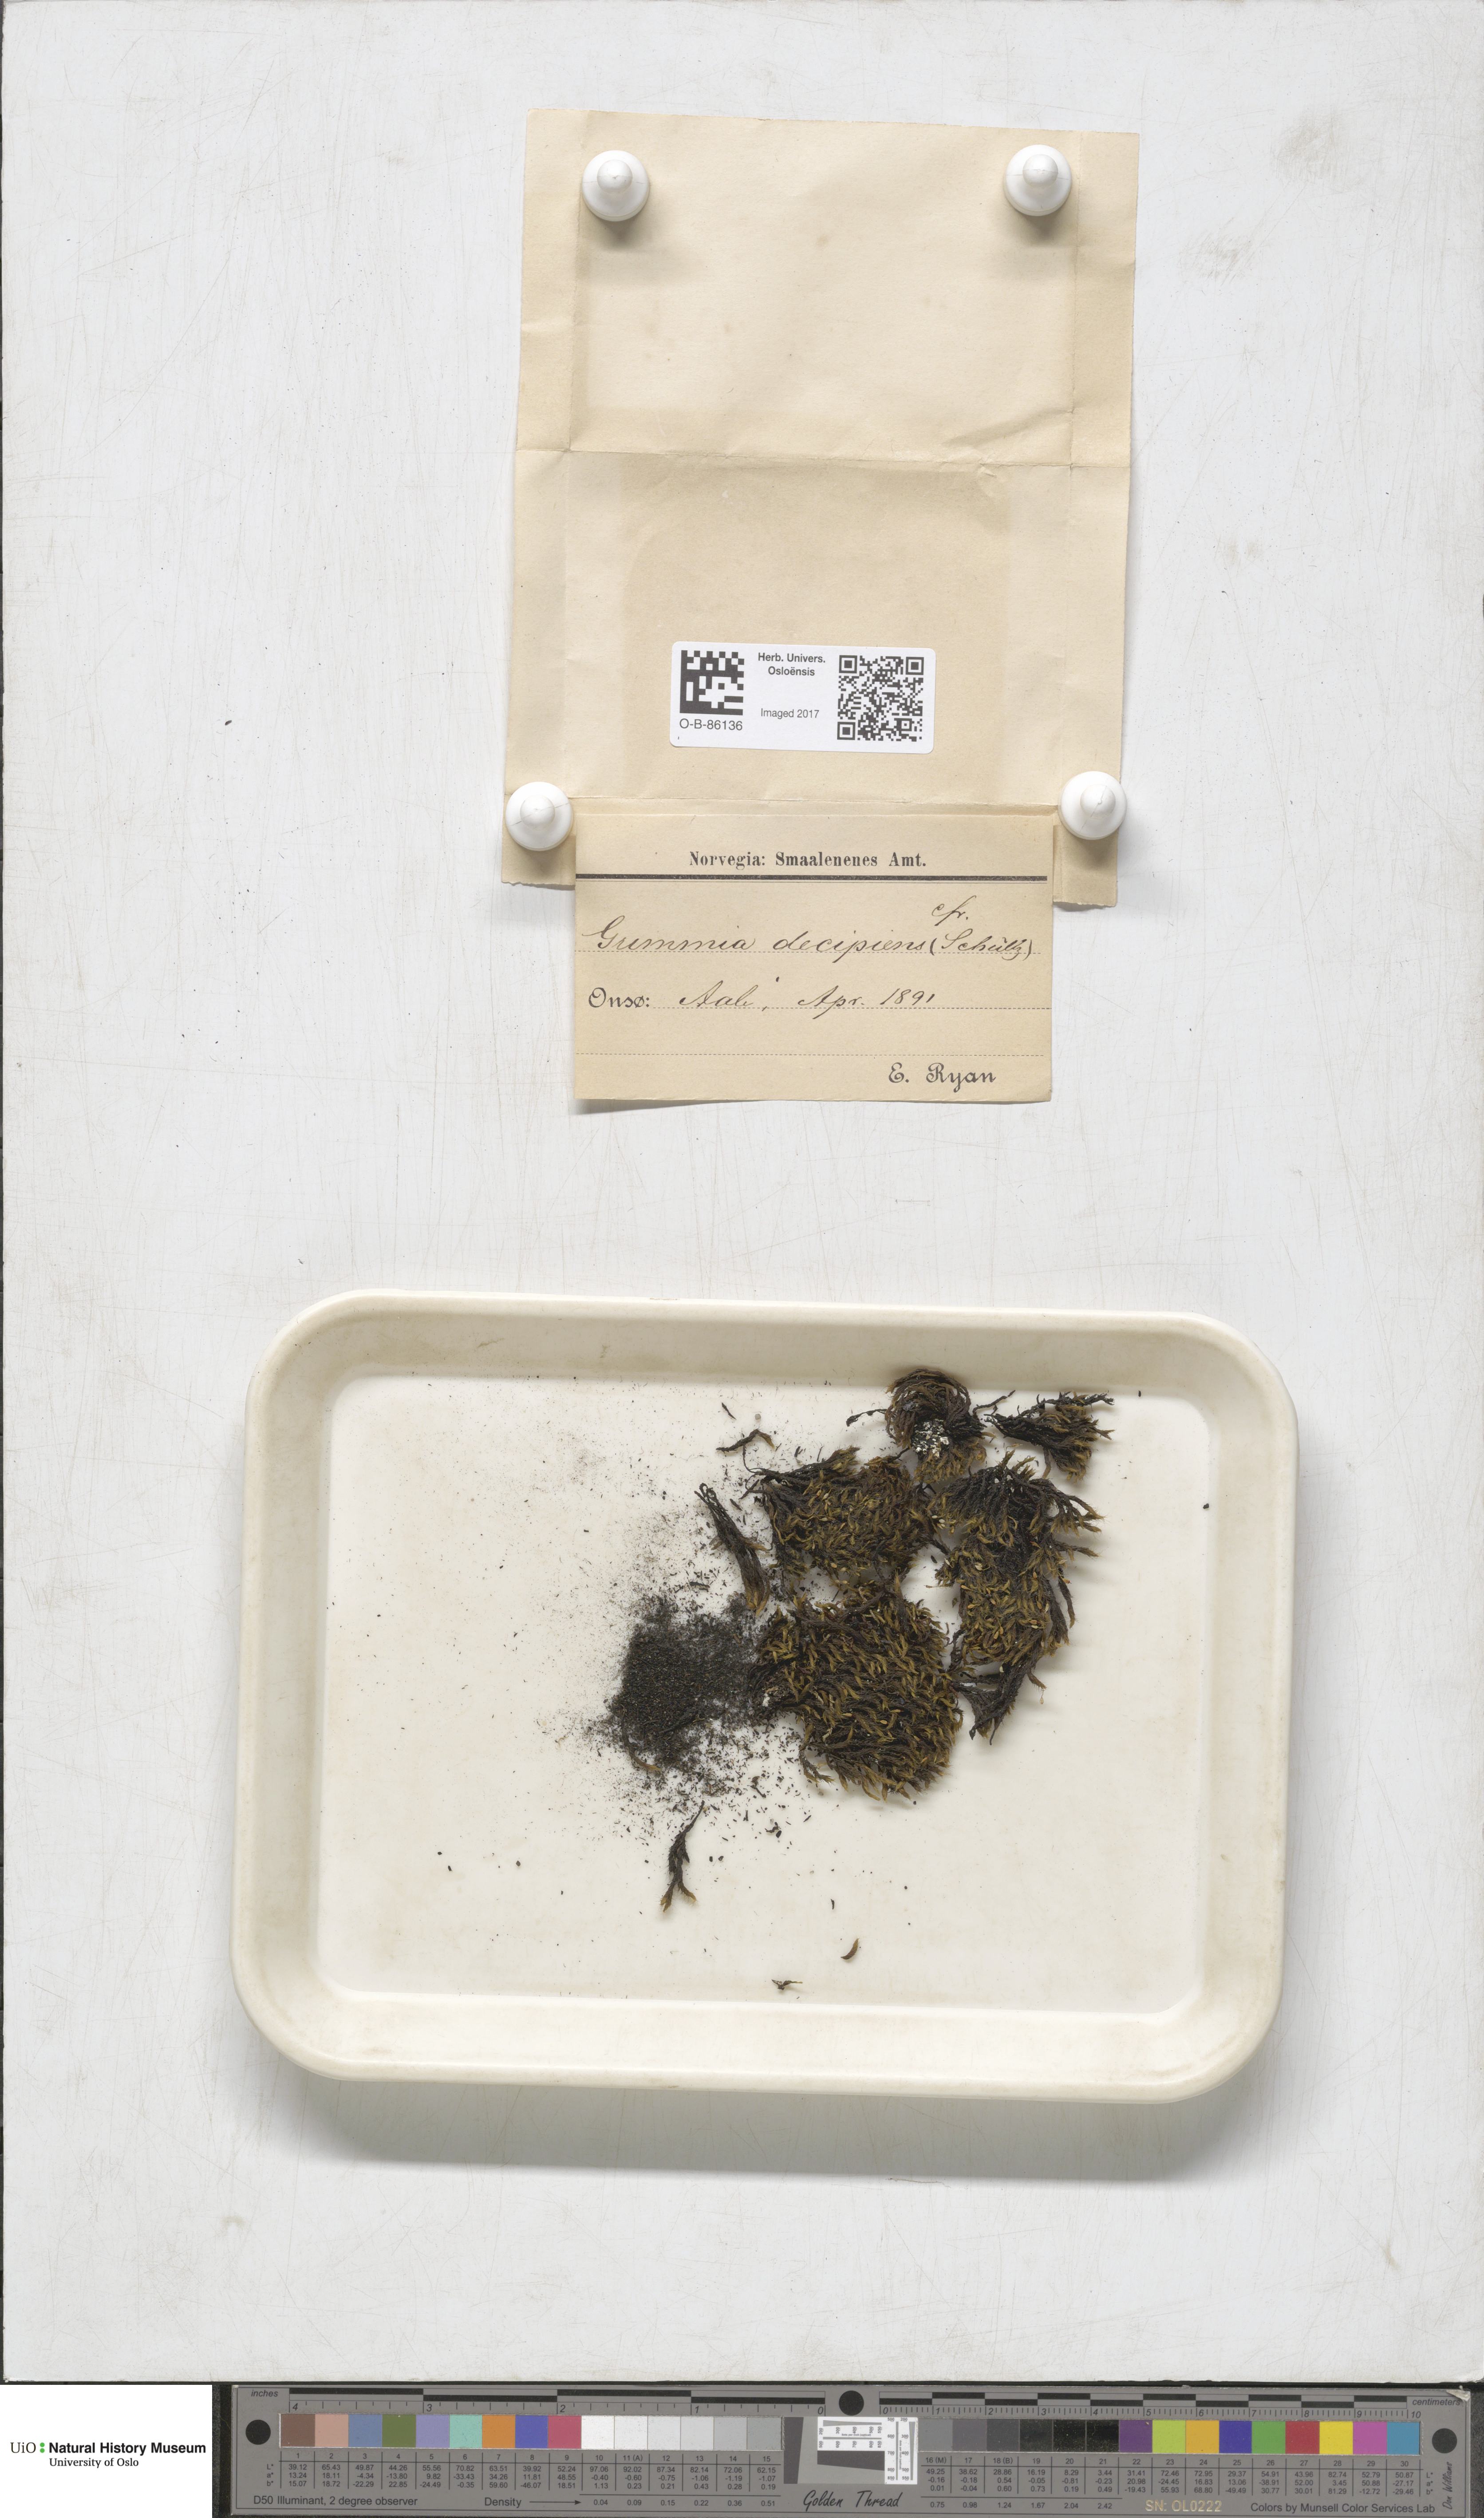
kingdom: Plantae
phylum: Bryophyta
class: Bryopsida
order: Grimmiales
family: Grimmiaceae
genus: Grimmia
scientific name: Grimmia decipiens
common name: Great grimmia
